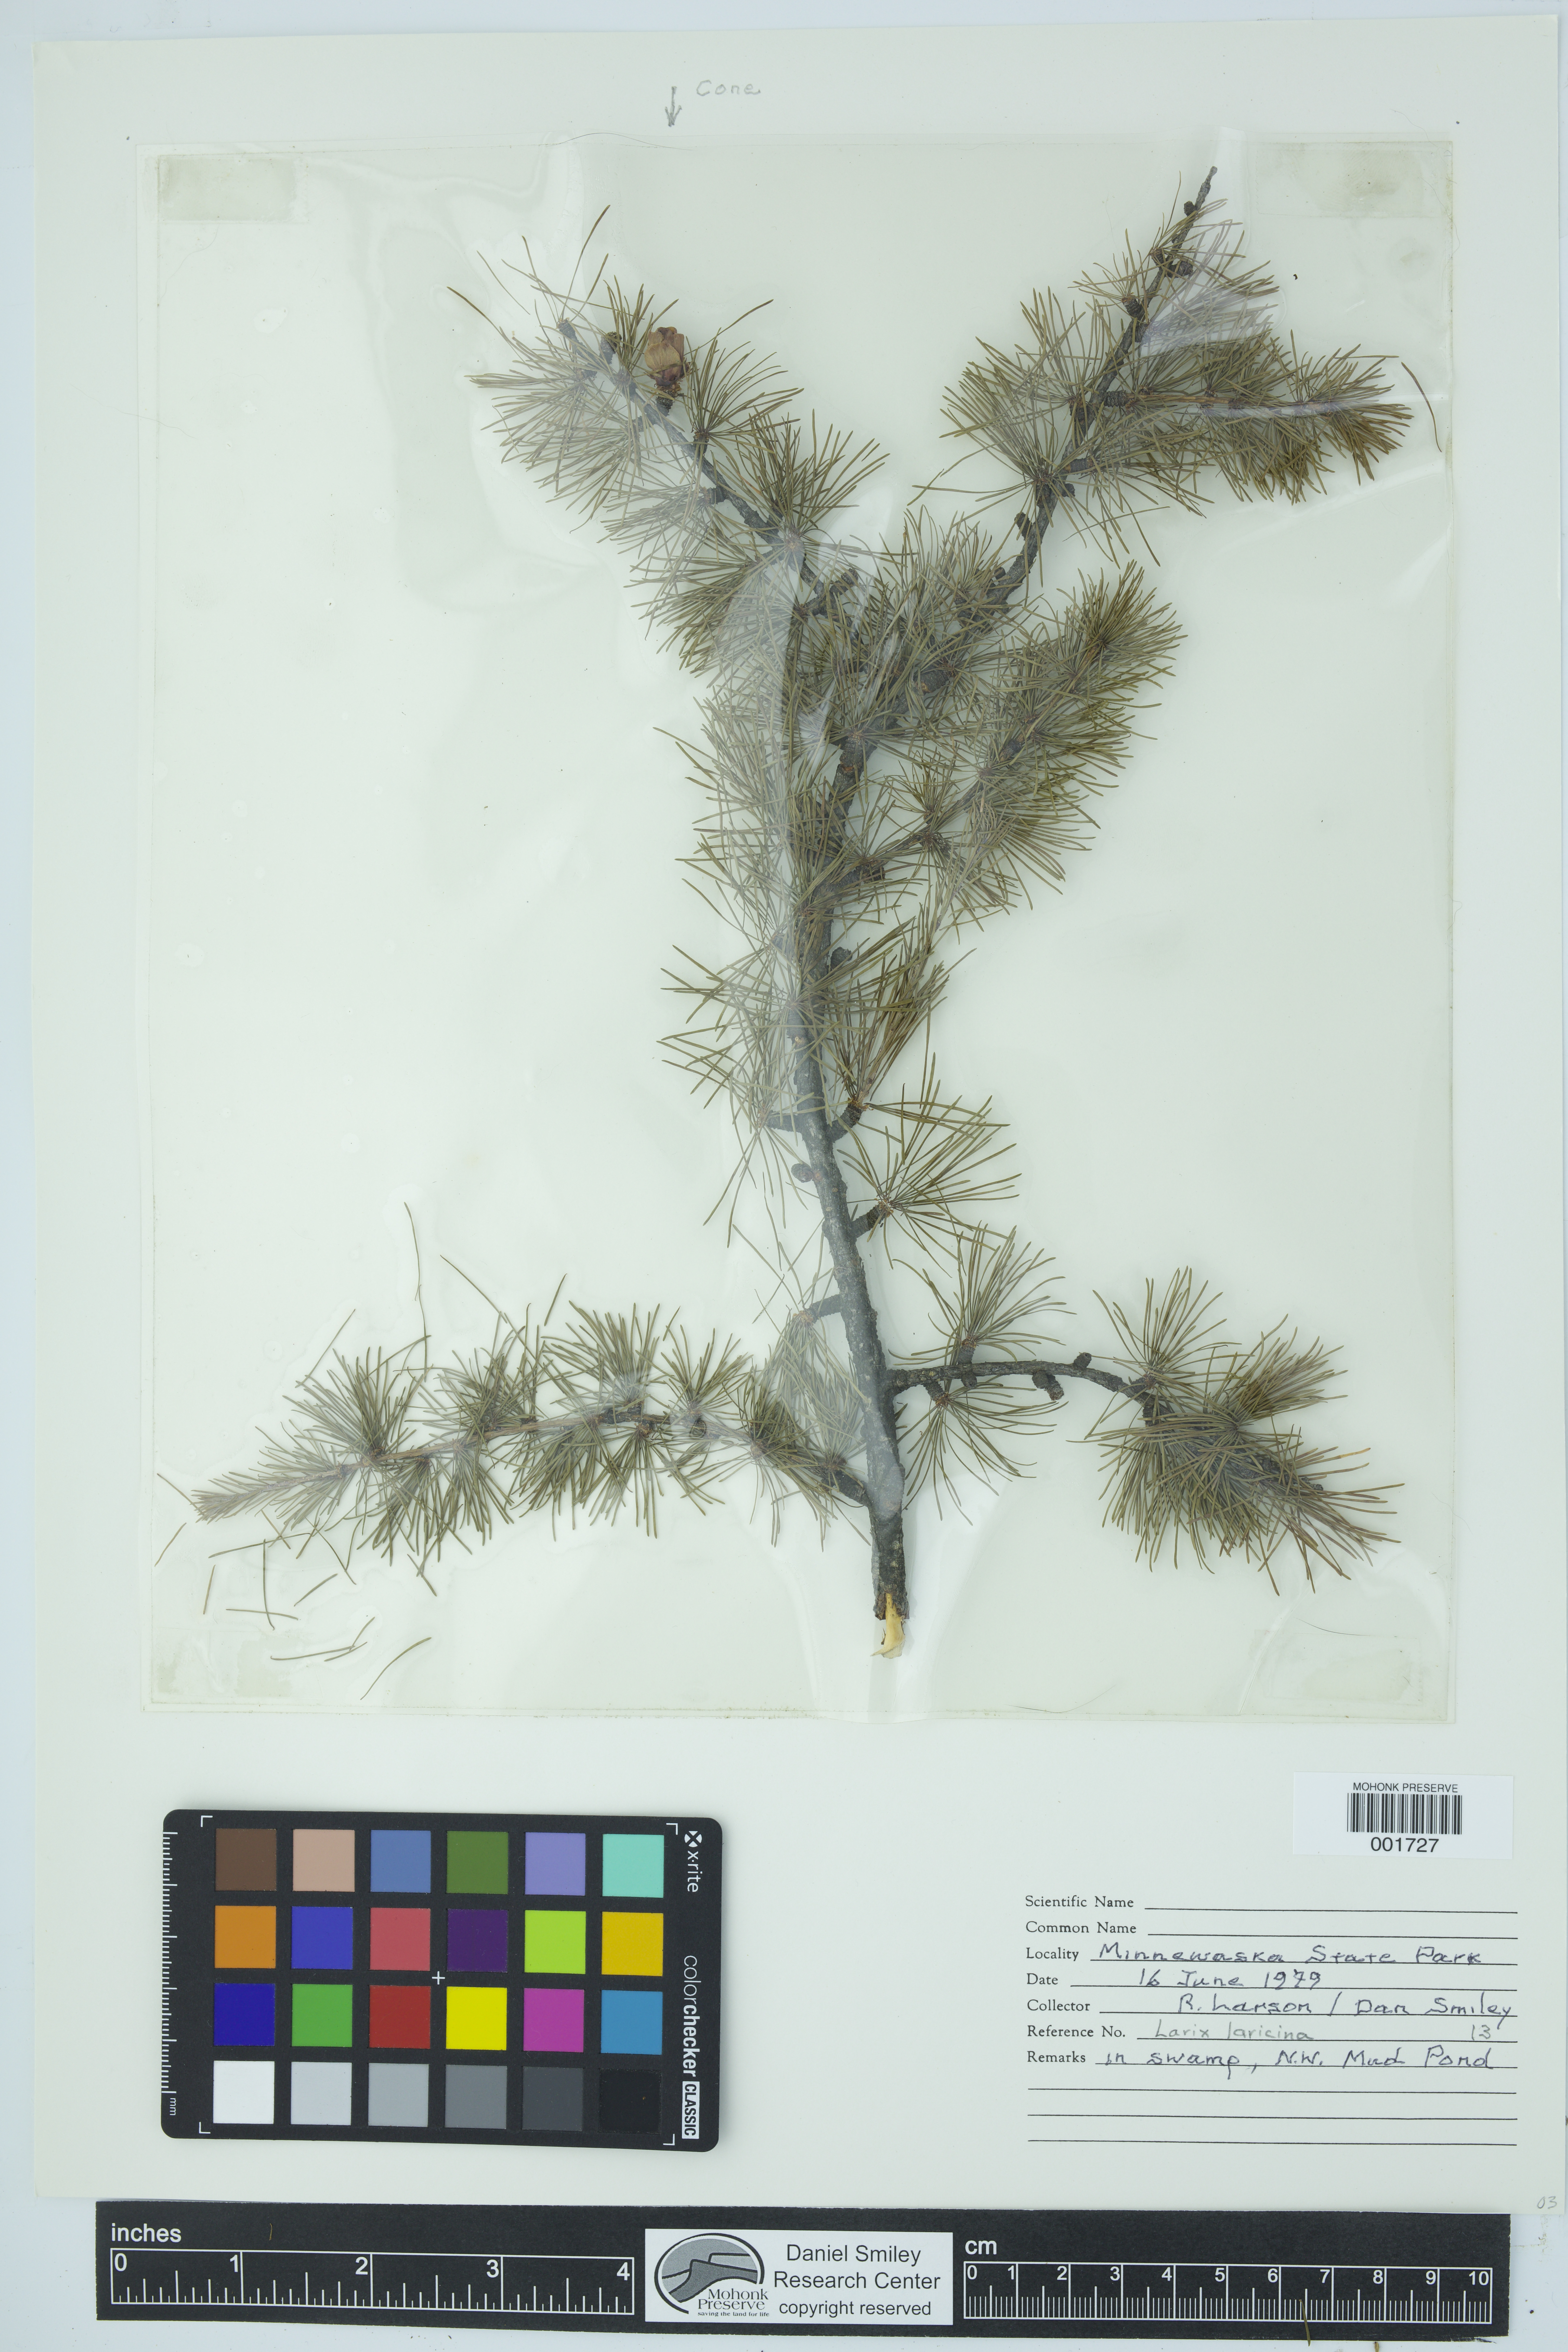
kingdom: Plantae
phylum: Tracheophyta
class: Pinopsida
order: Pinales
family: Pinaceae
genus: Larix
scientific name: Larix laricina
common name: American larch
